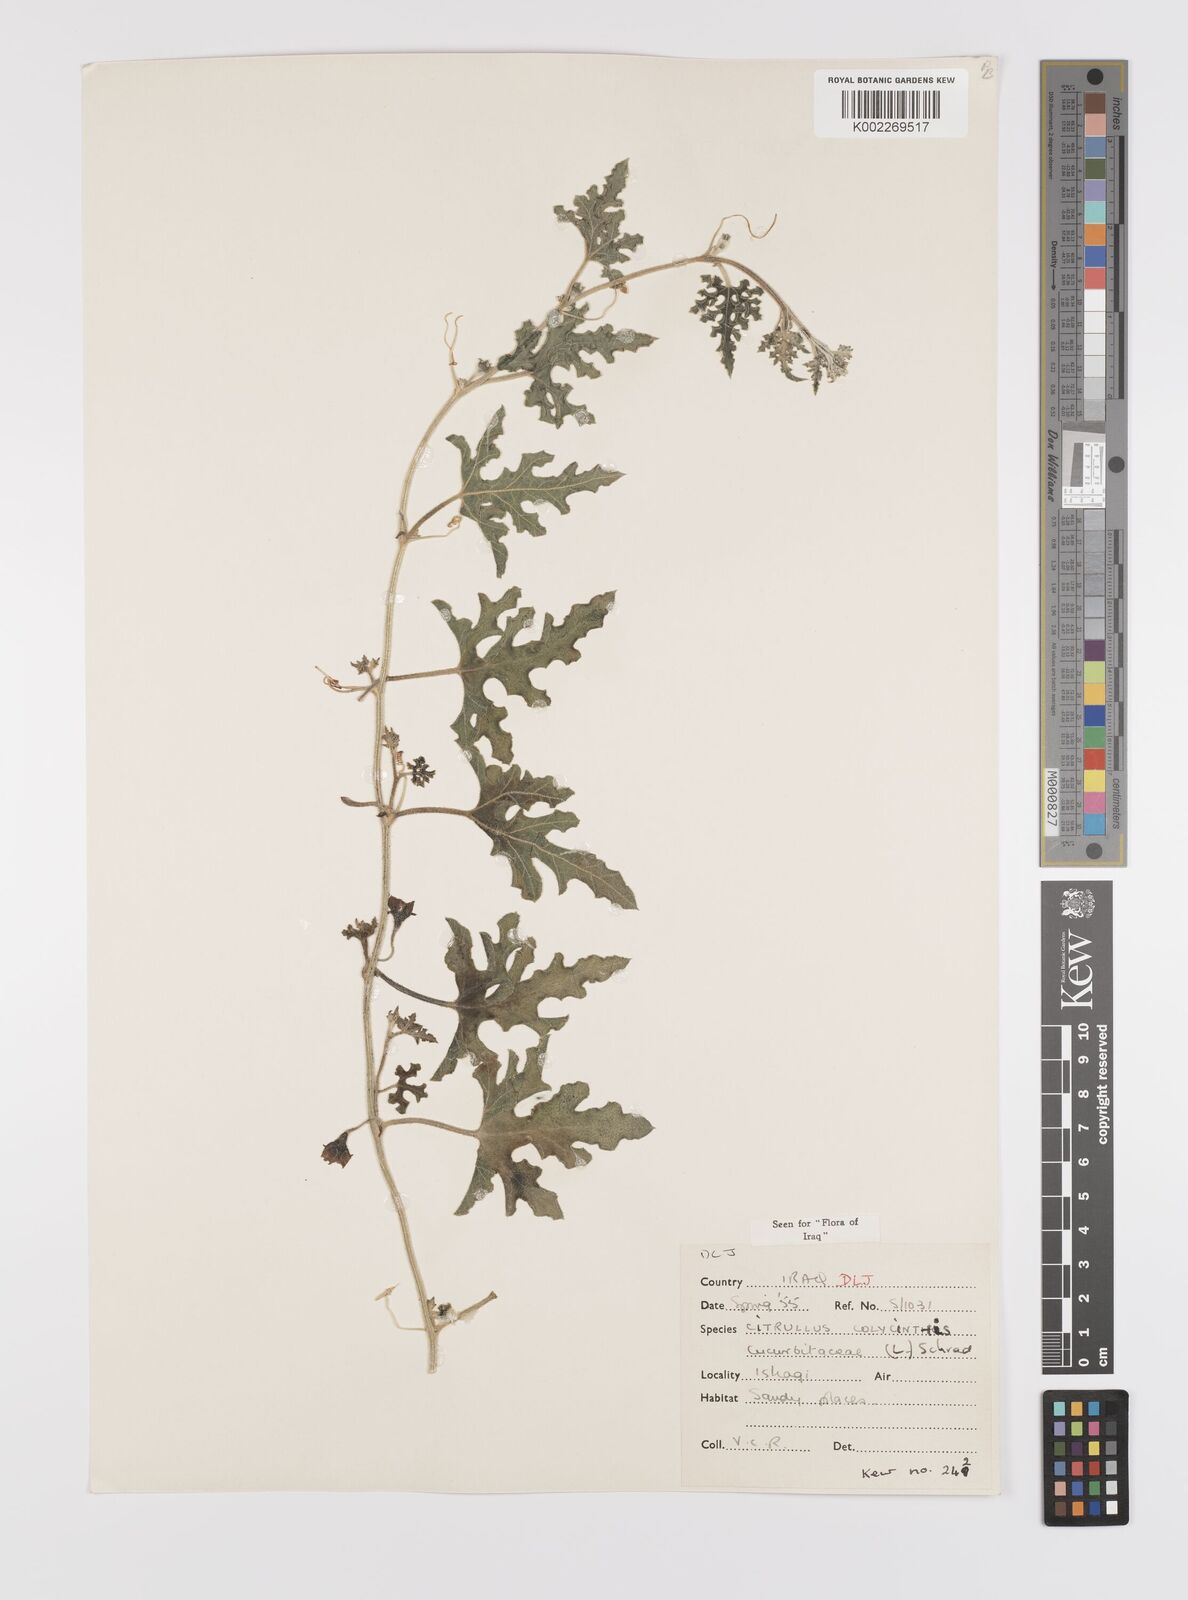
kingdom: Plantae
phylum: Tracheophyta
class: Magnoliopsida
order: Cucurbitales
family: Cucurbitaceae
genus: Citrullus
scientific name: Citrullus colocynthis
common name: Colocynth
